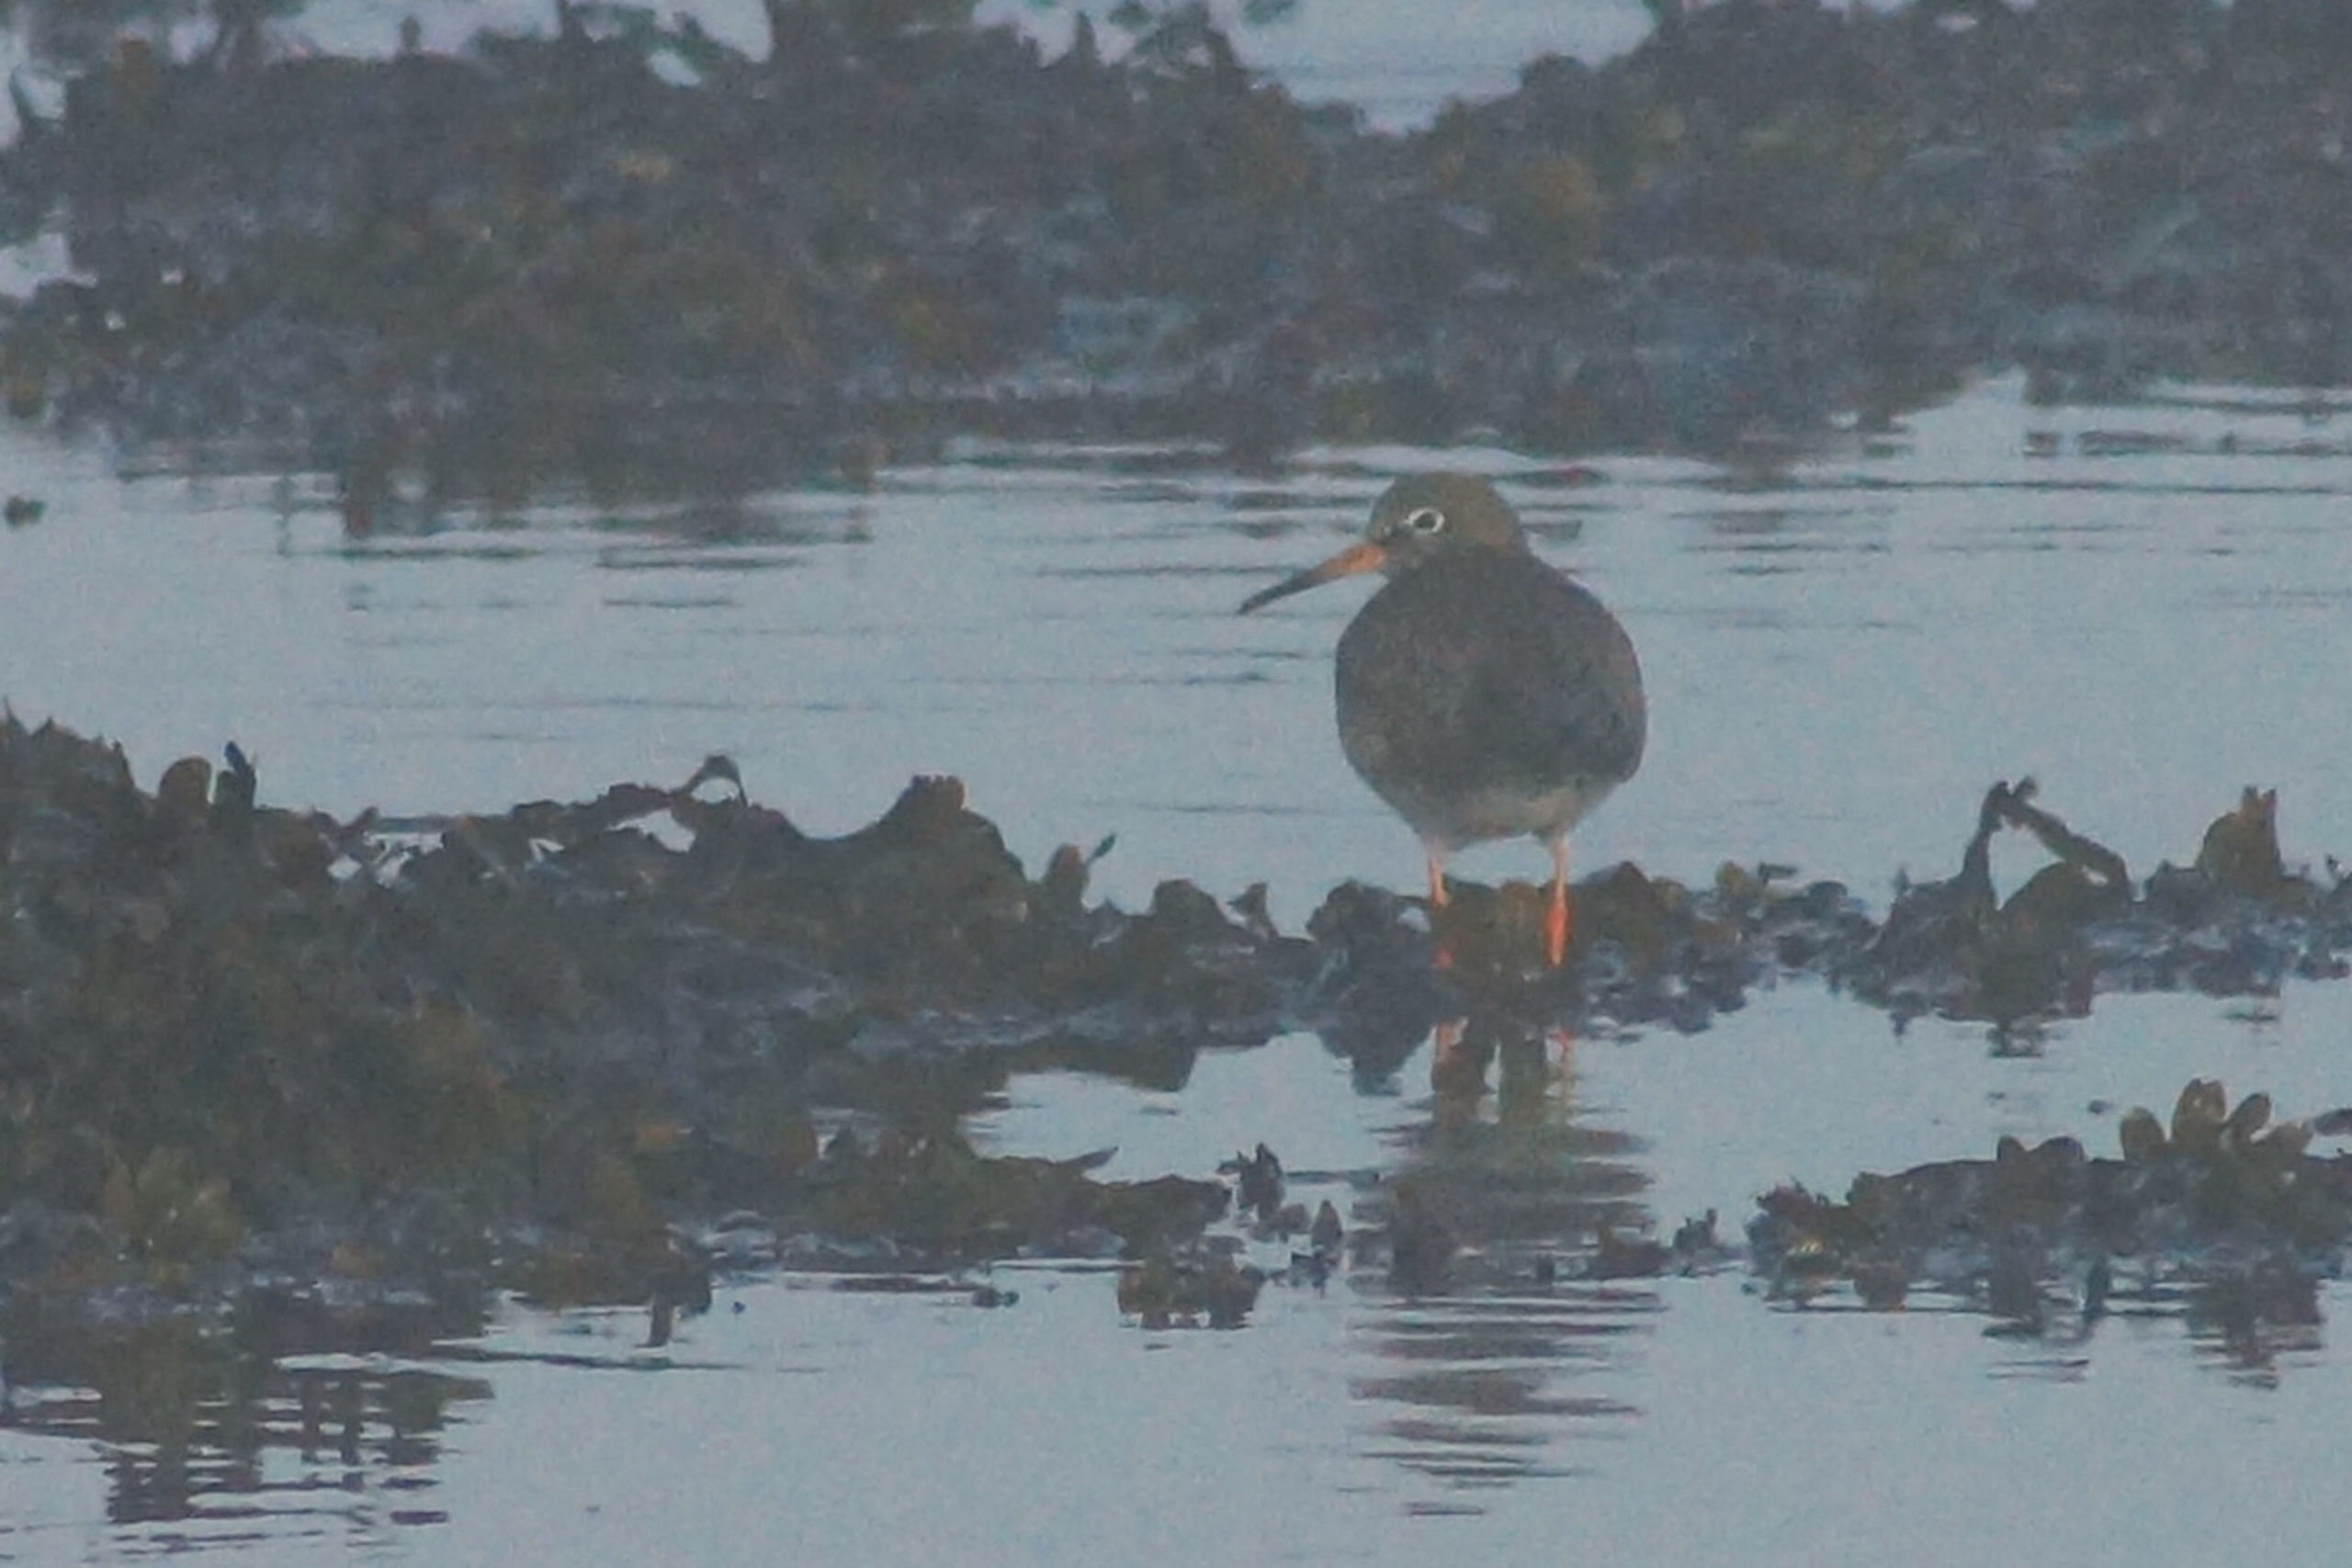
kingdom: Animalia
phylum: Chordata
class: Aves
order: Charadriiformes
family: Scolopacidae
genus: Tringa
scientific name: Tringa totanus
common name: Rødben
